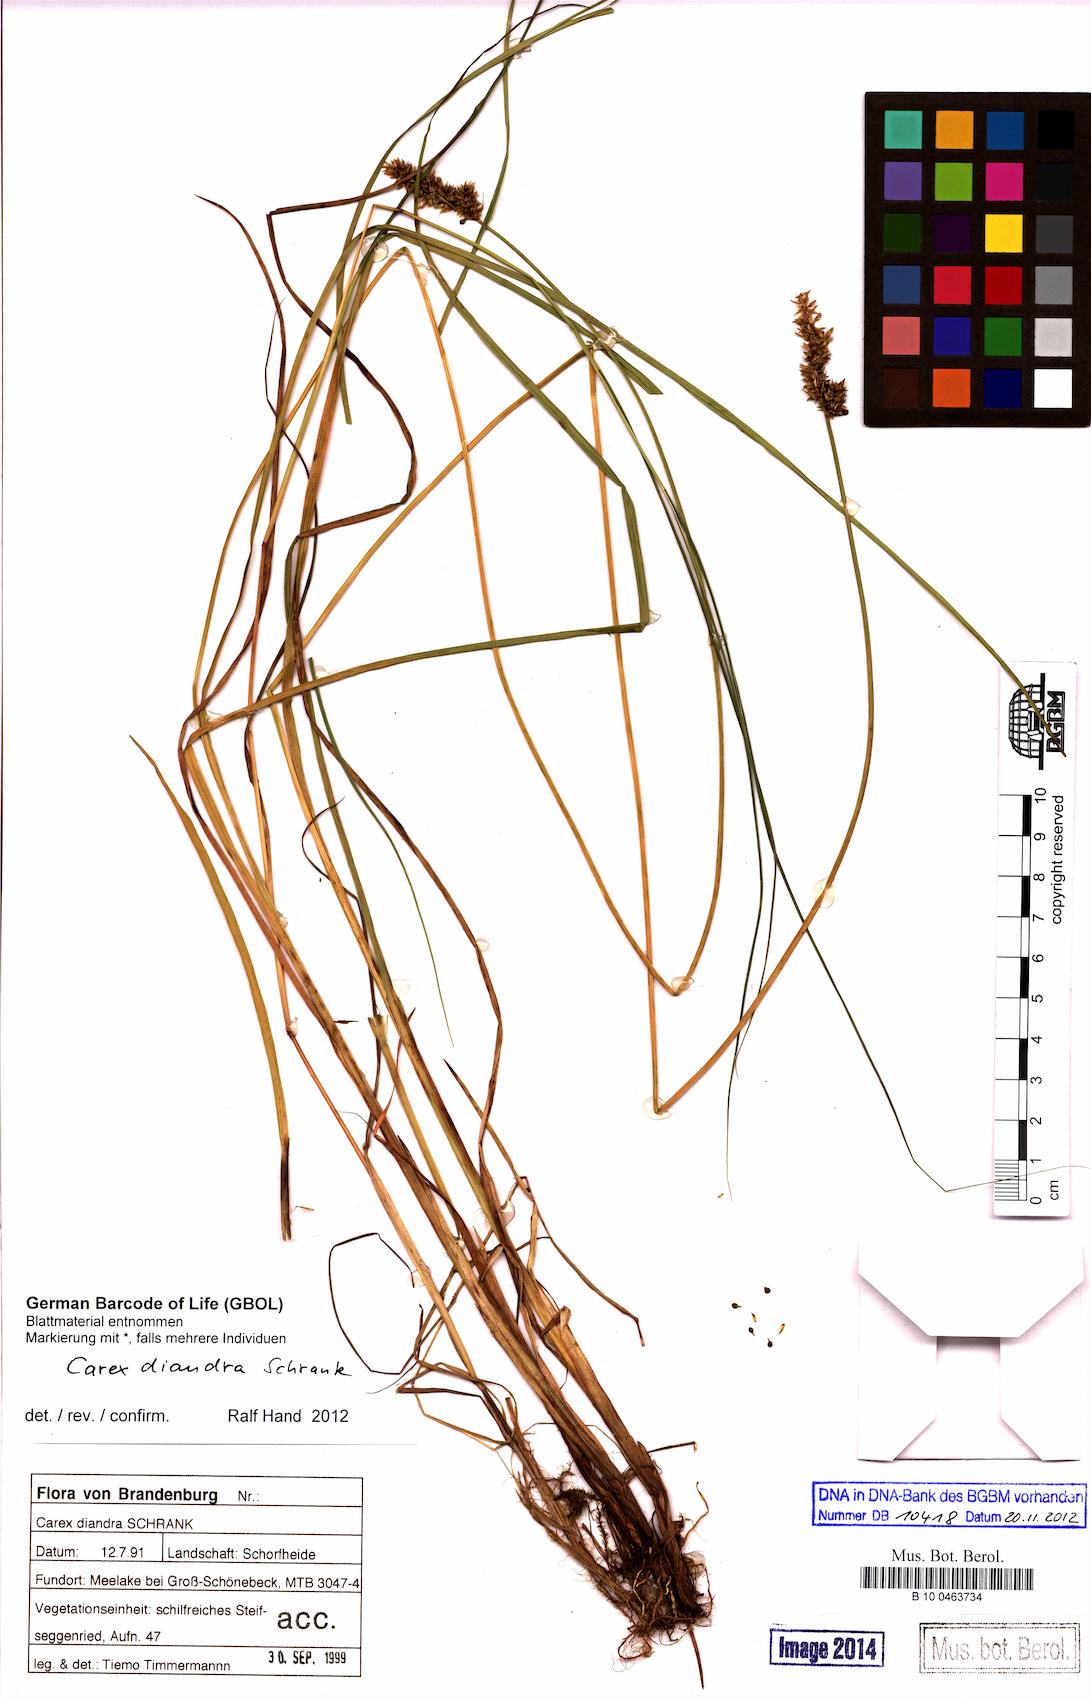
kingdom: Plantae
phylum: Tracheophyta
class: Liliopsida
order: Poales
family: Cyperaceae
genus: Carex
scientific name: Carex diandra
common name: Lesser tussock-sedge
